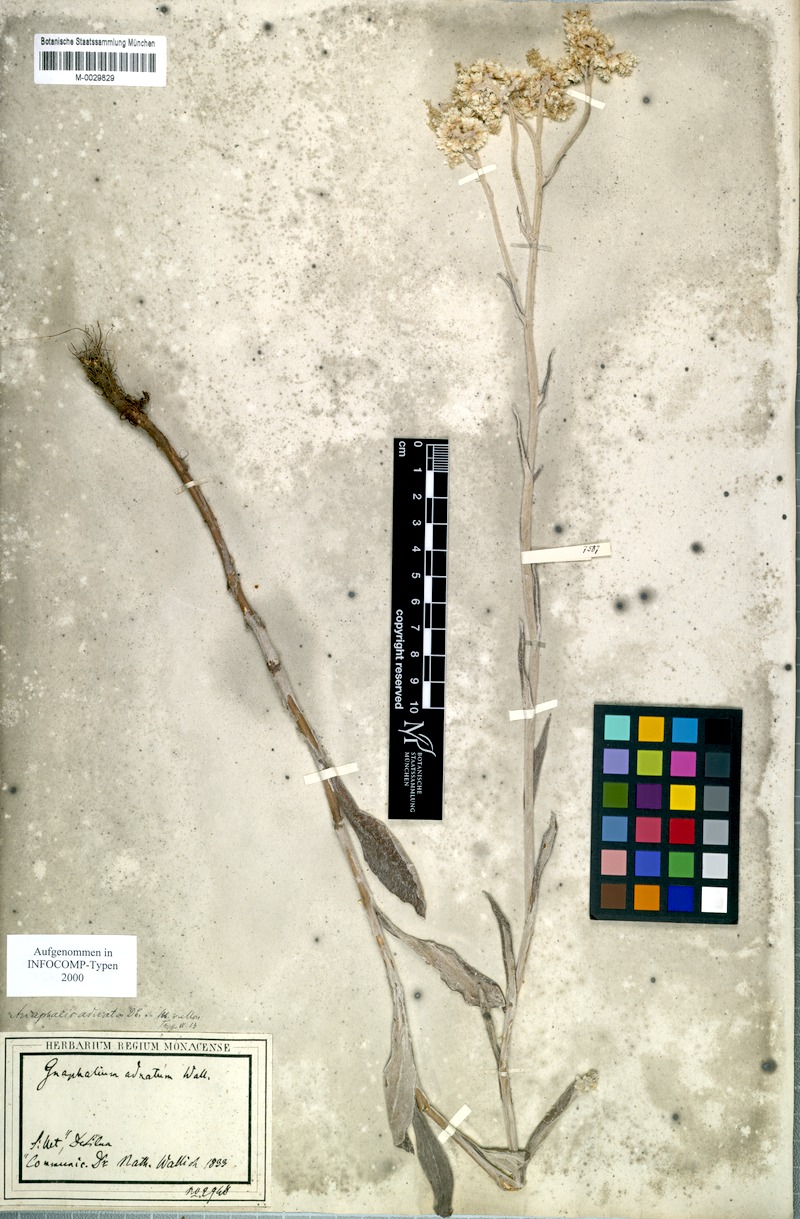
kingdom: Plantae
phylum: Tracheophyta
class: Magnoliopsida
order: Asterales
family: Asteraceae
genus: Pseudognaphalium
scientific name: Pseudognaphalium adnatum
